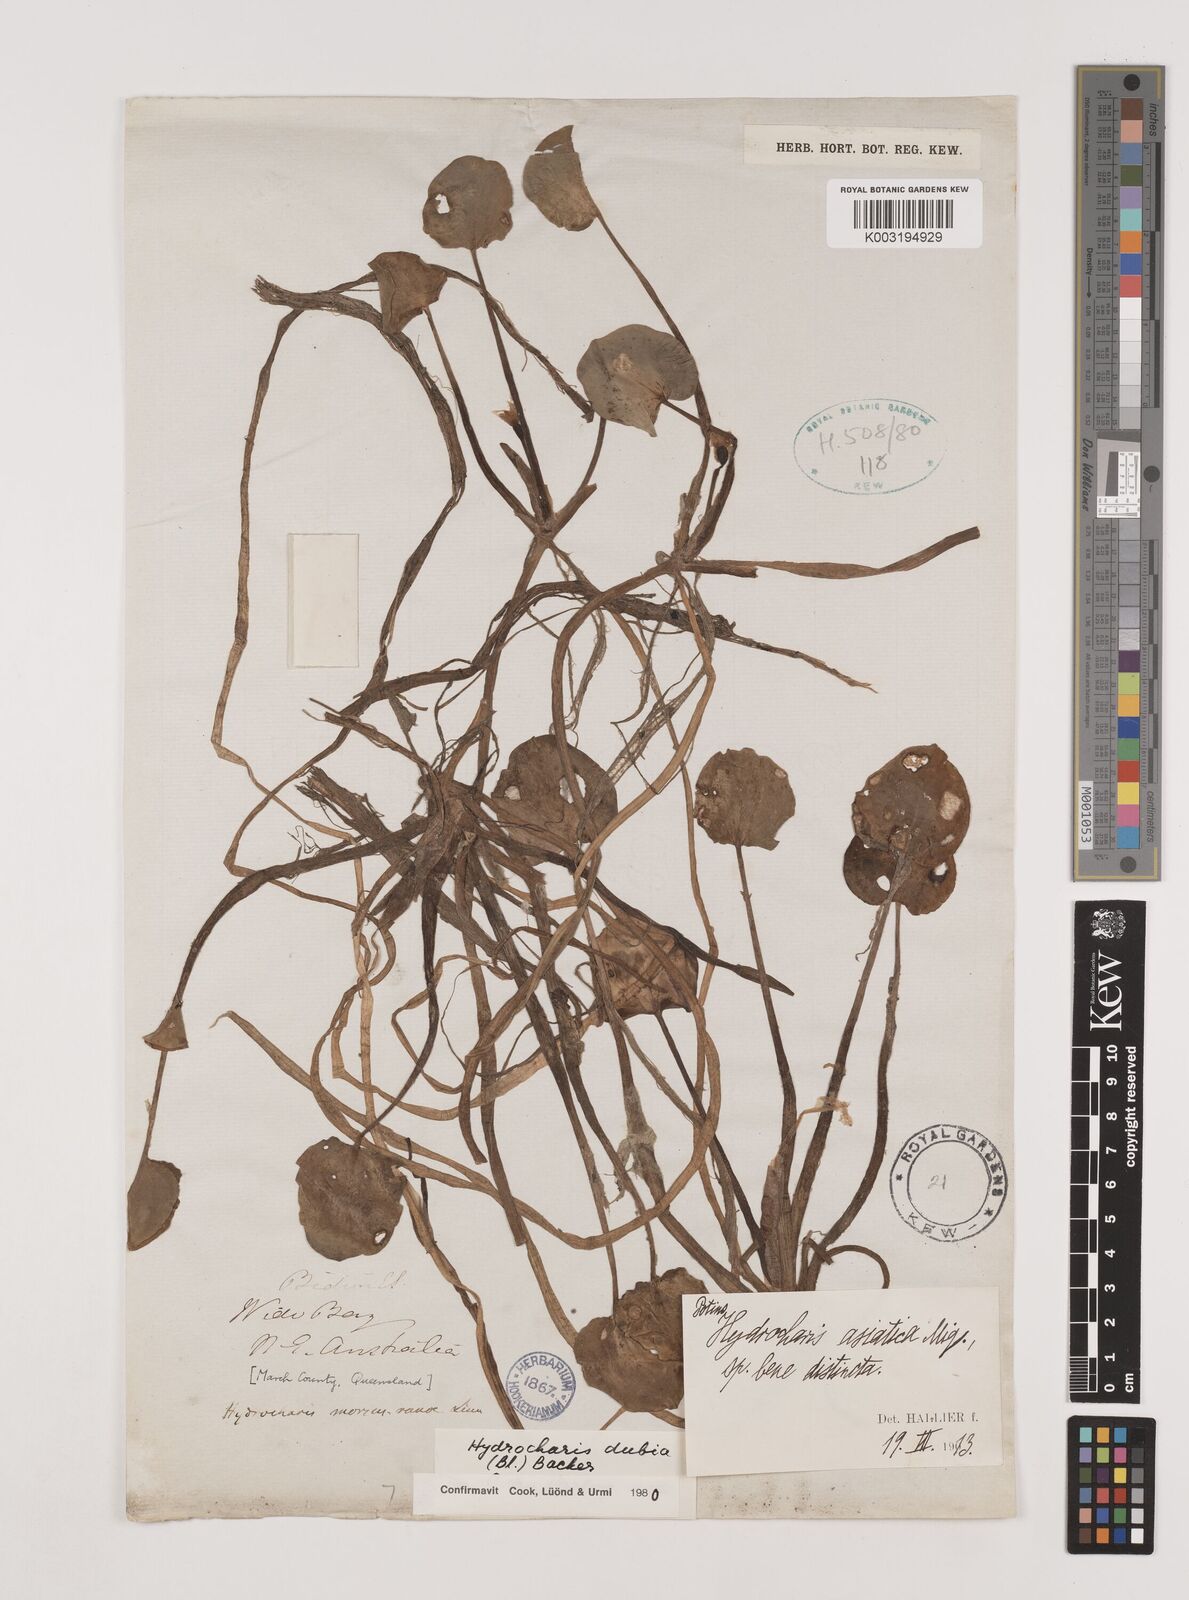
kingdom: Plantae
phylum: Tracheophyta
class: Liliopsida
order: Alismatales
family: Hydrocharitaceae
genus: Hydrocharis
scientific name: Hydrocharis dubia
